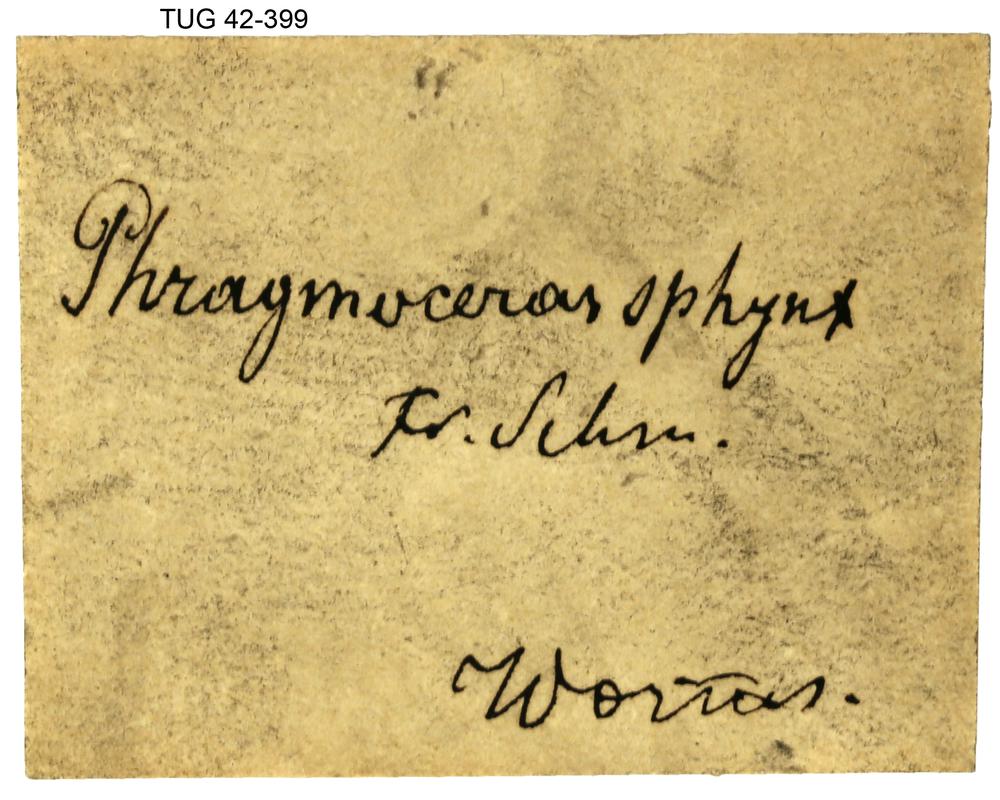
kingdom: Animalia
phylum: Mollusca
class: Cephalopoda
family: Protophragmoceratidae
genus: Protophragmoceras
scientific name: Protophragmoceras Phragmoceras sphynx
